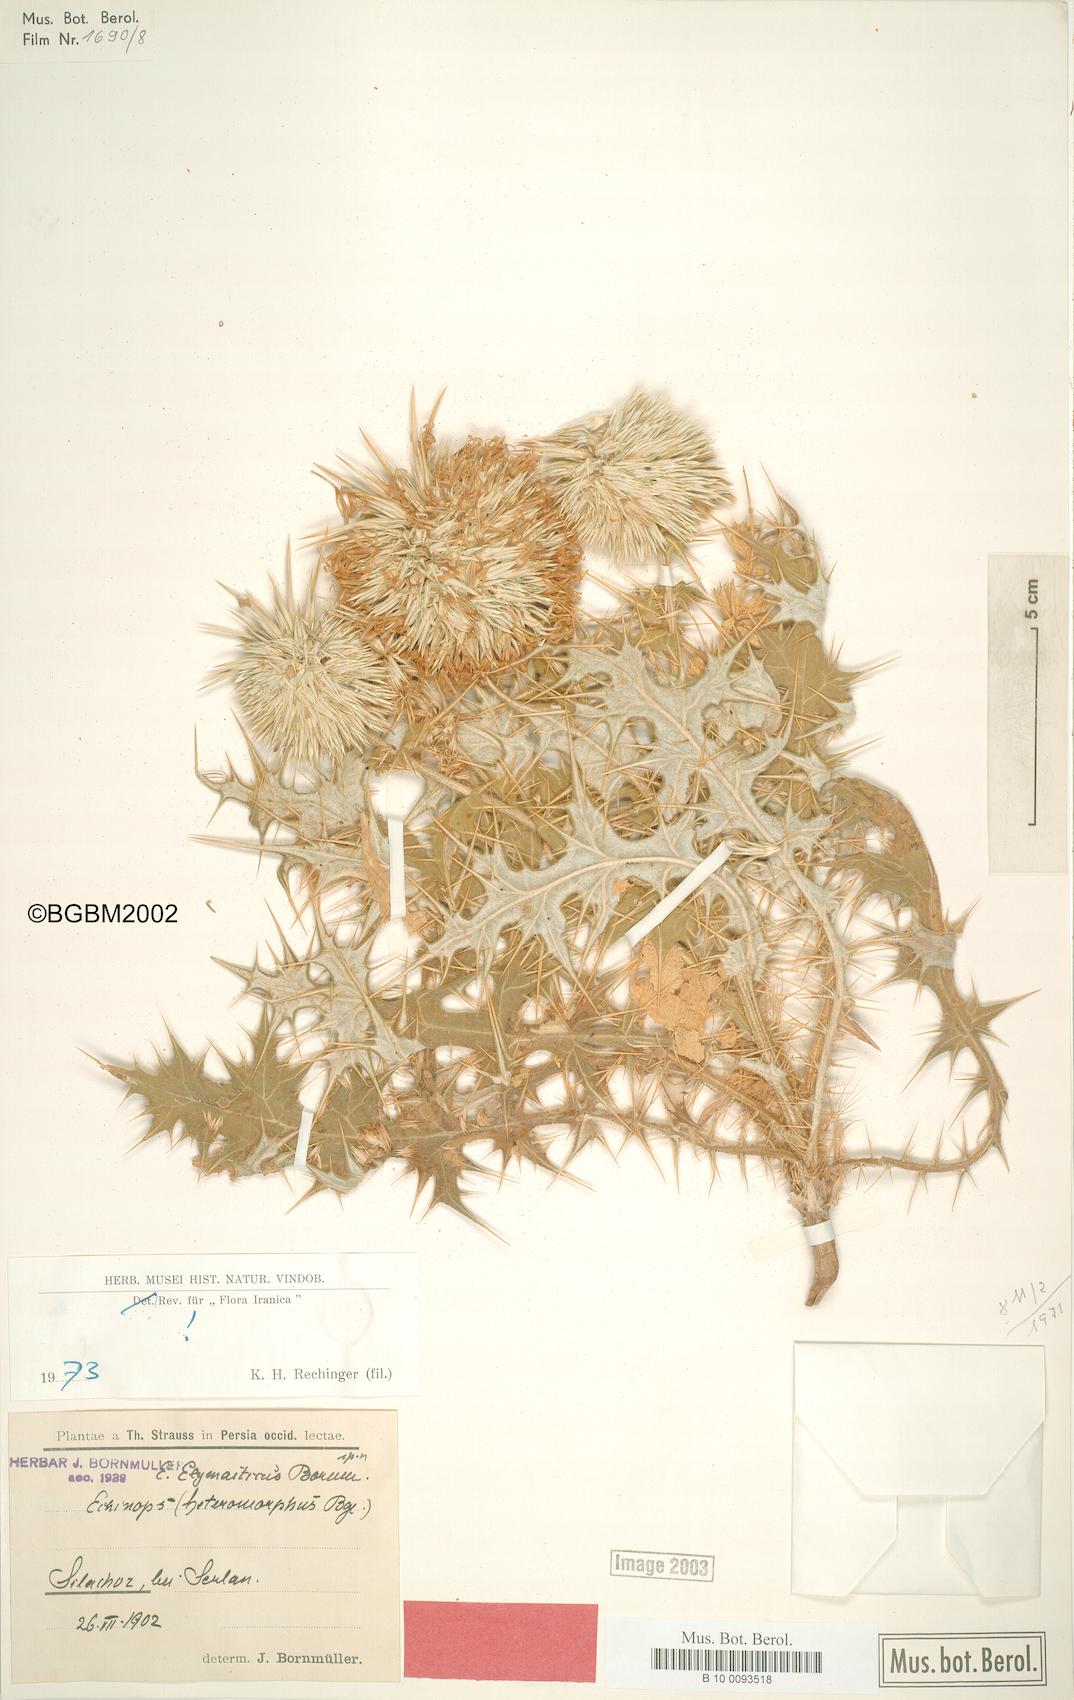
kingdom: Plantae
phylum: Tracheophyta
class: Magnoliopsida
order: Asterales
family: Asteraceae
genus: Echinops
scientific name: Echinops elymaiticus
